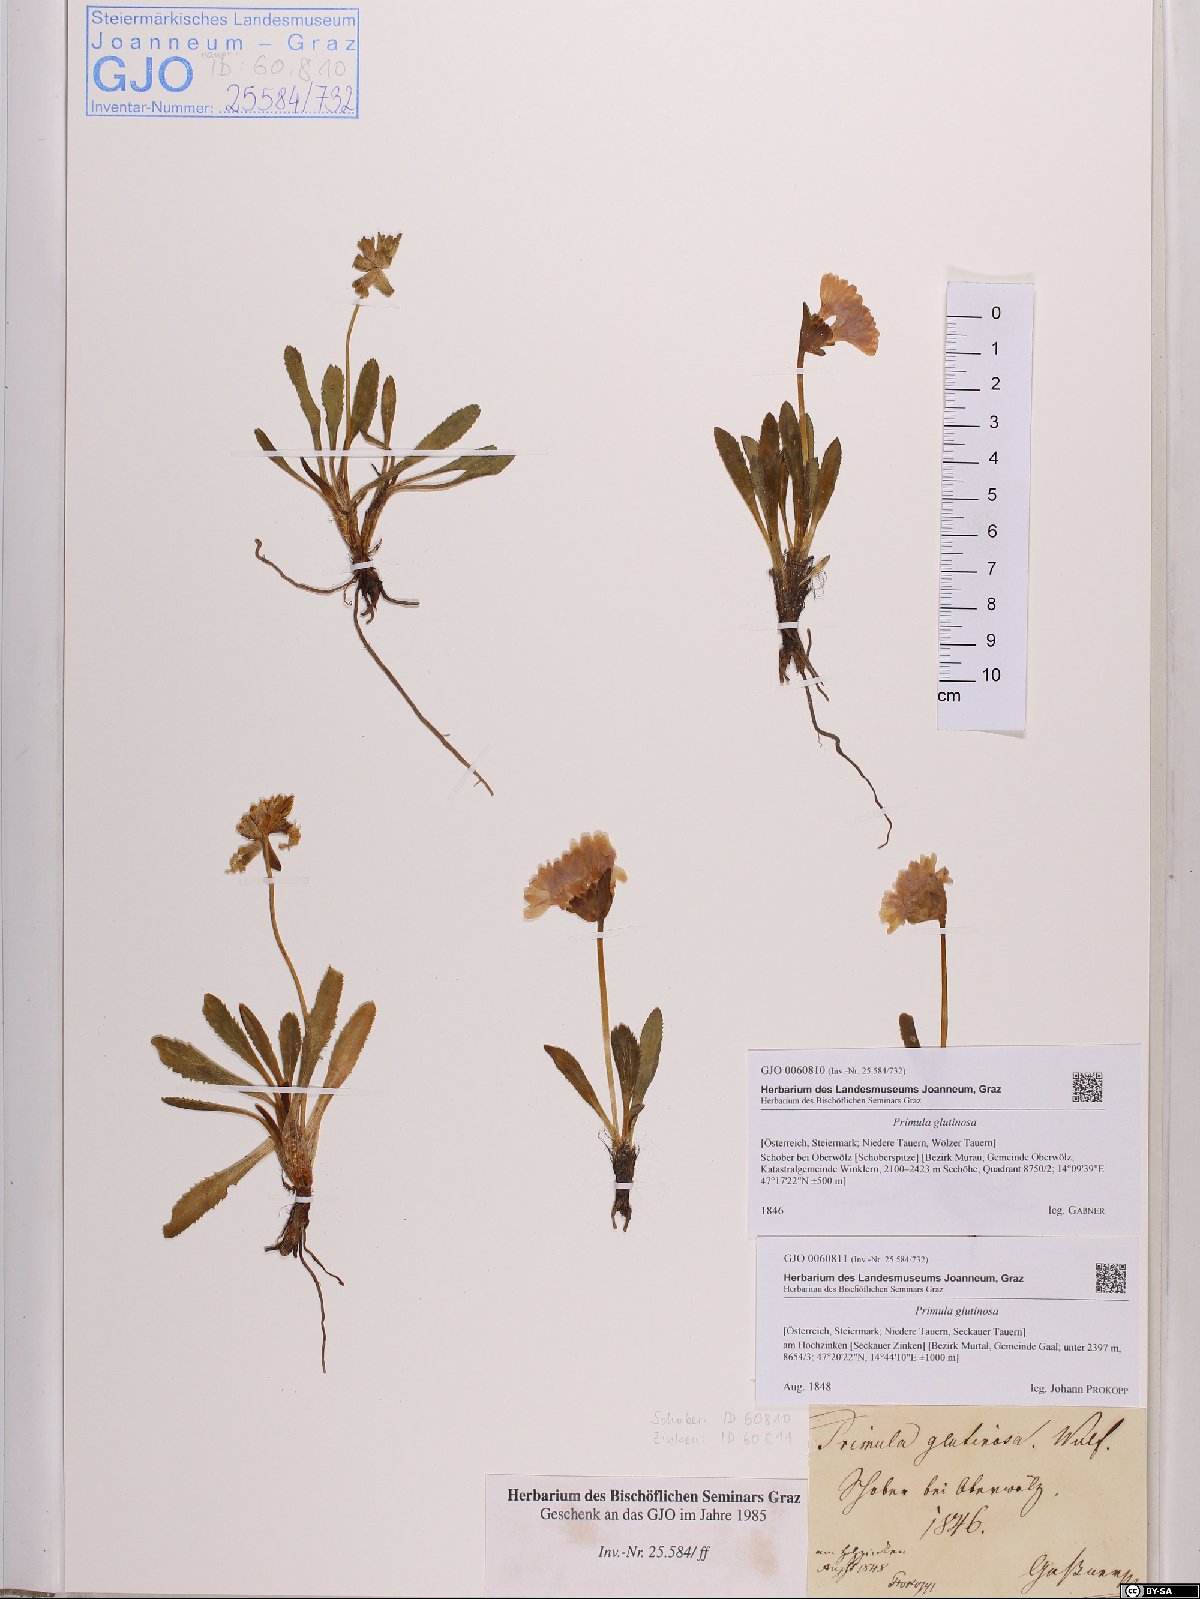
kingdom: Plantae
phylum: Tracheophyta
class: Magnoliopsida
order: Ericales
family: Primulaceae
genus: Primula
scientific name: Primula glutinosa
